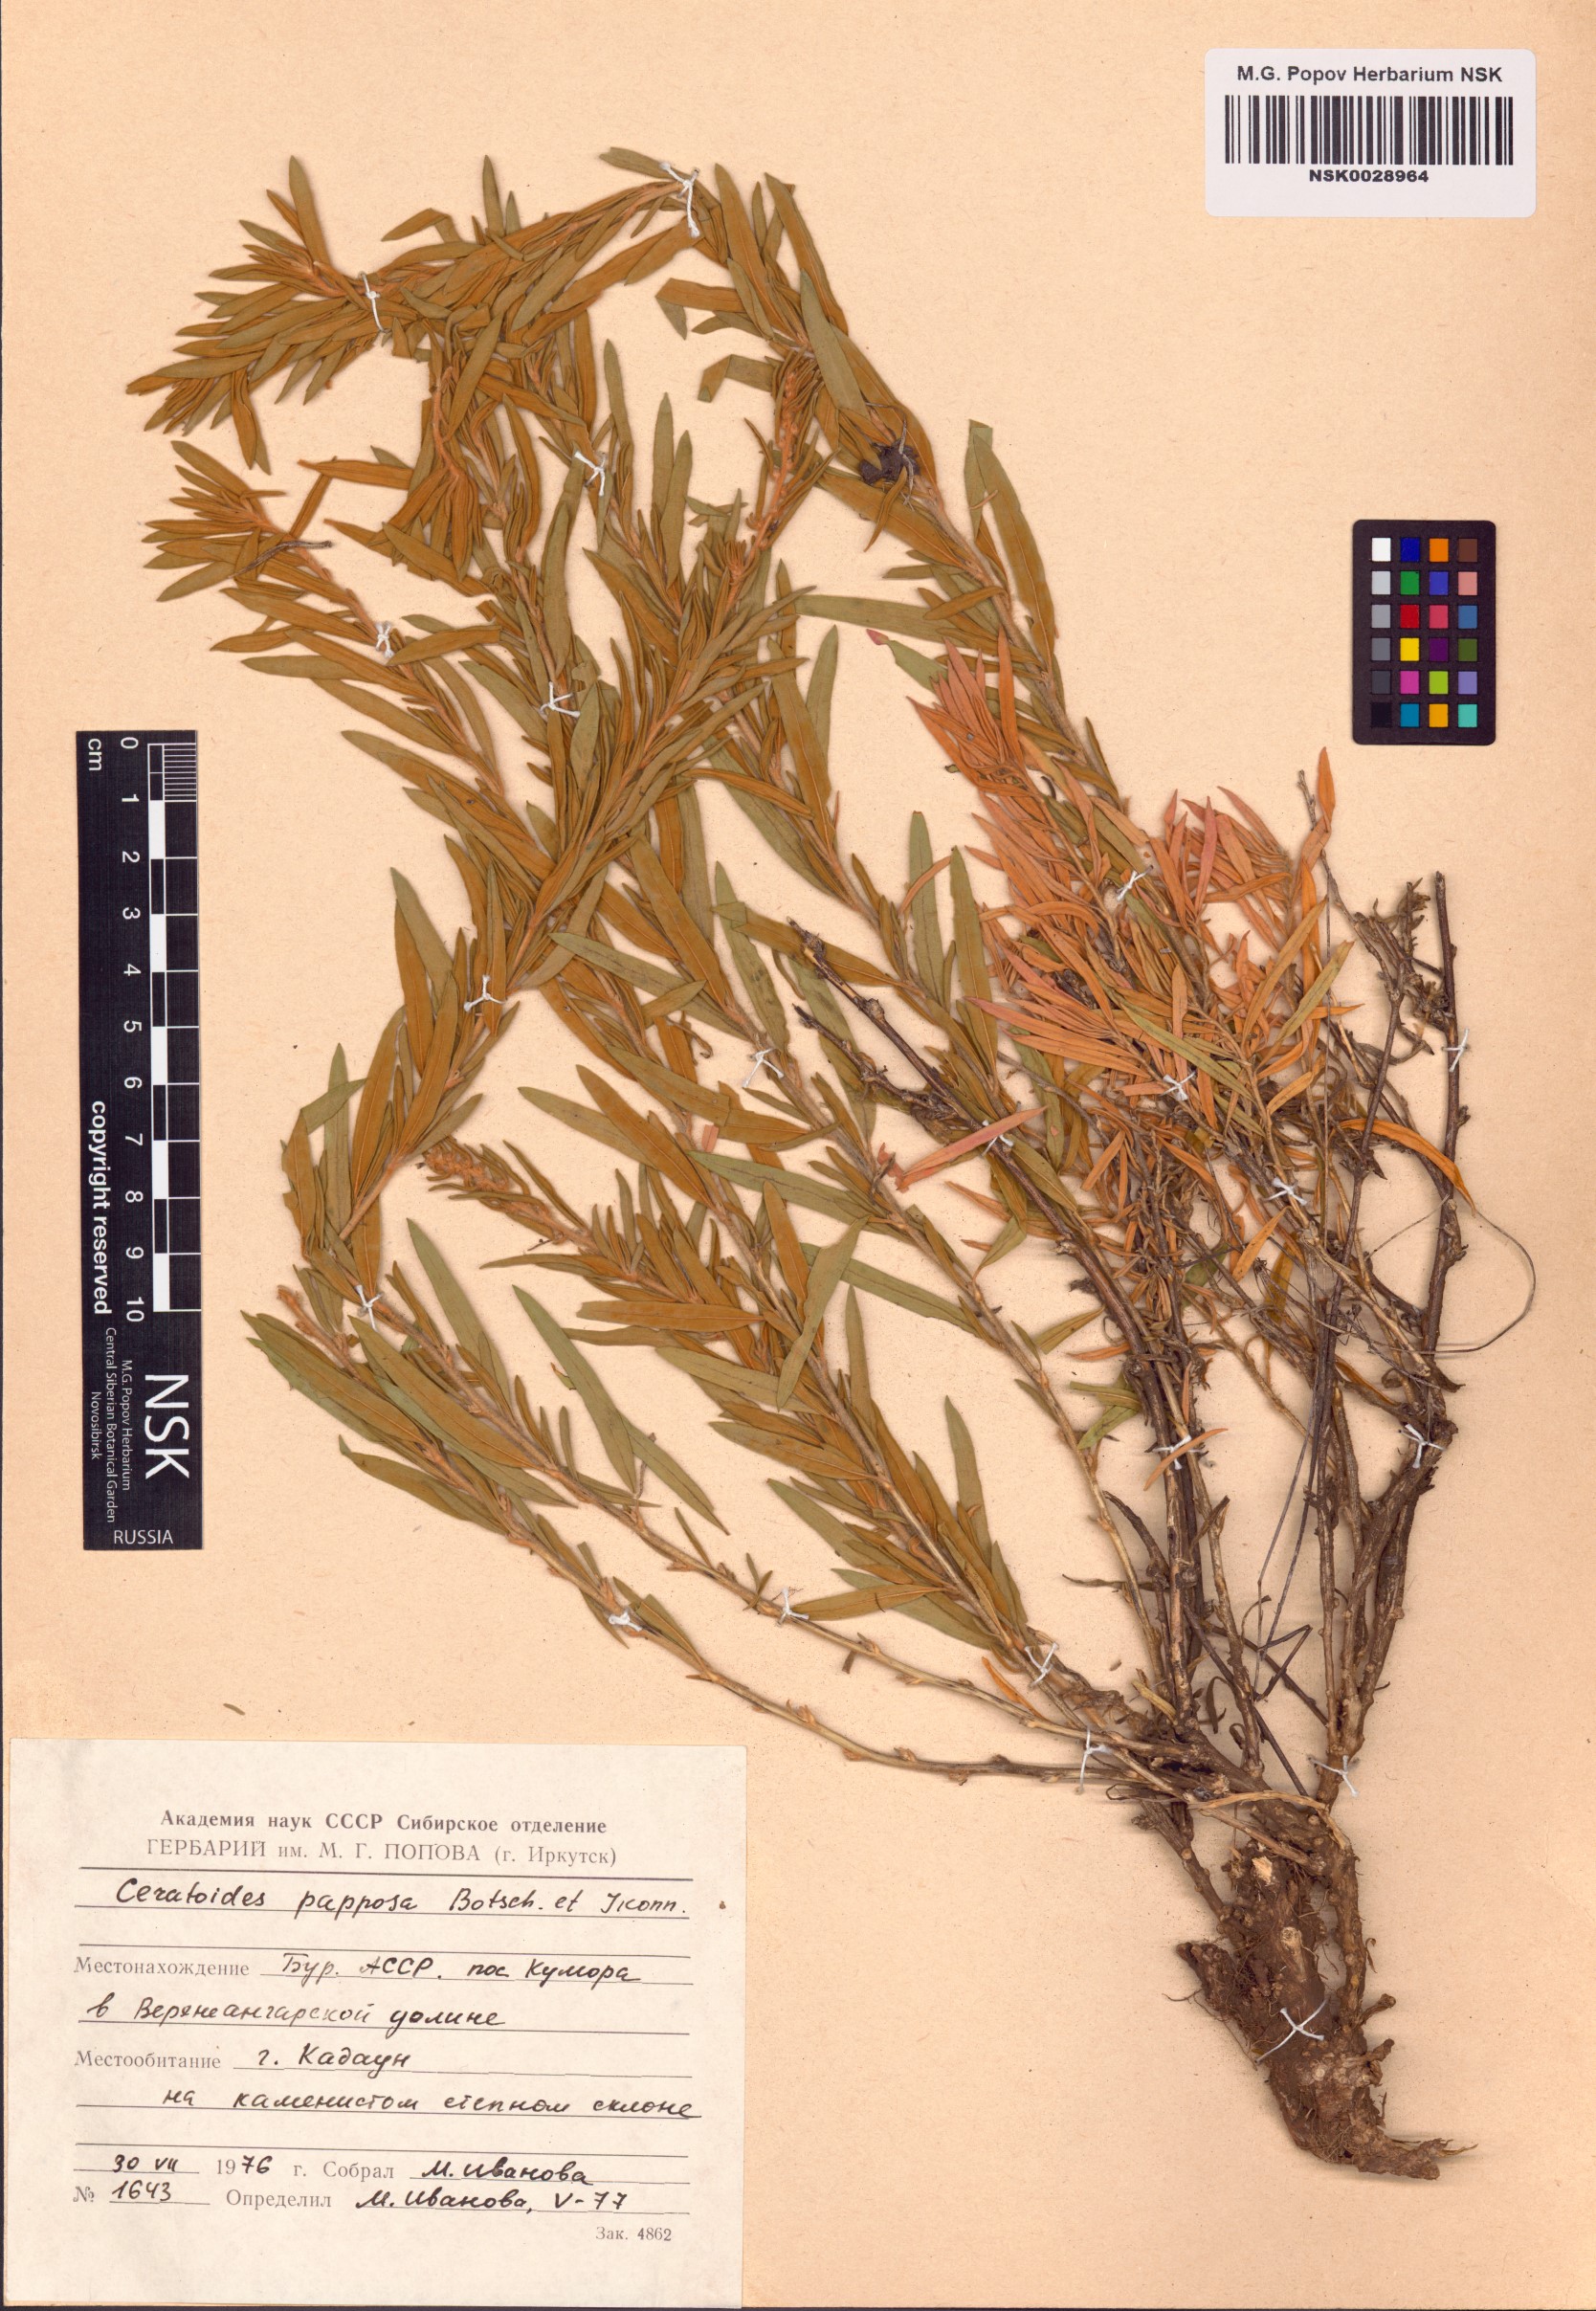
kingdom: Plantae
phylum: Tracheophyta
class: Magnoliopsida
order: Caryophyllales
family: Amaranthaceae
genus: Krascheninnikovia
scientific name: Krascheninnikovia ceratoides
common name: Pamirian winterfat
